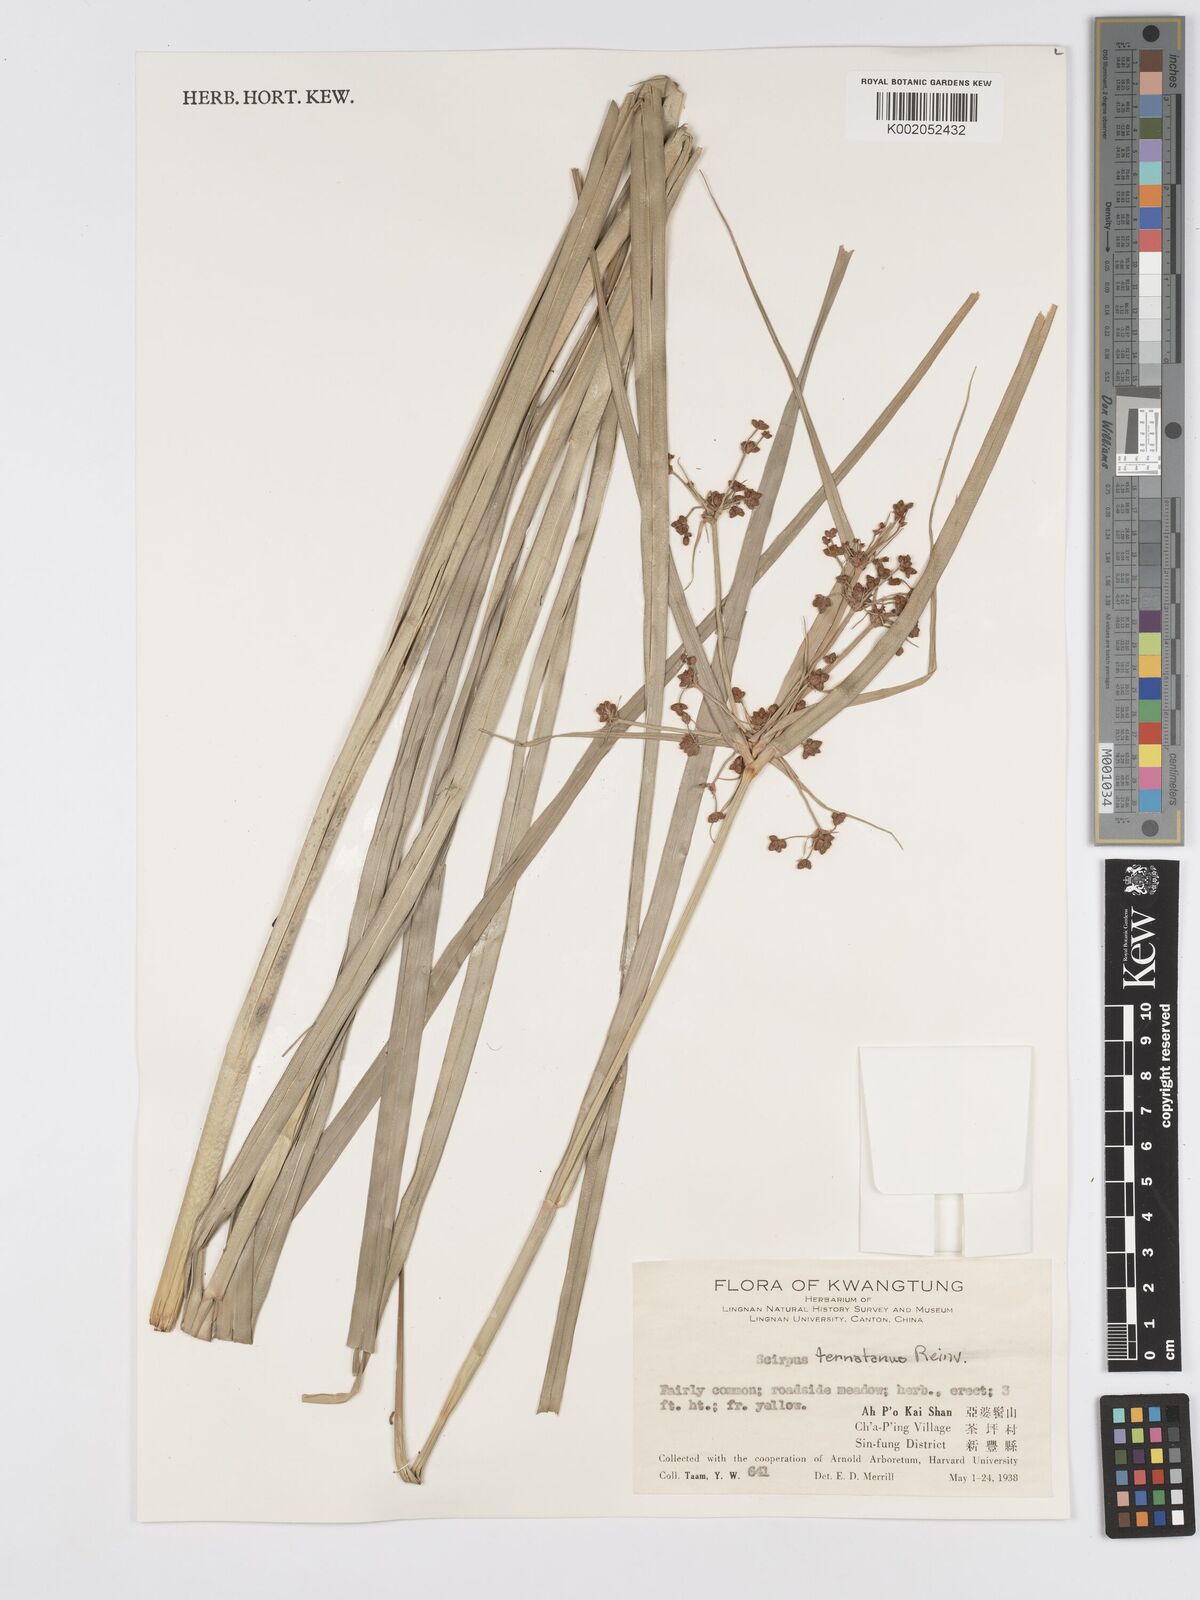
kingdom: Plantae
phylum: Tracheophyta
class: Liliopsida
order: Poales
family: Cyperaceae
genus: Scirpus
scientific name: Scirpus ternatanus
